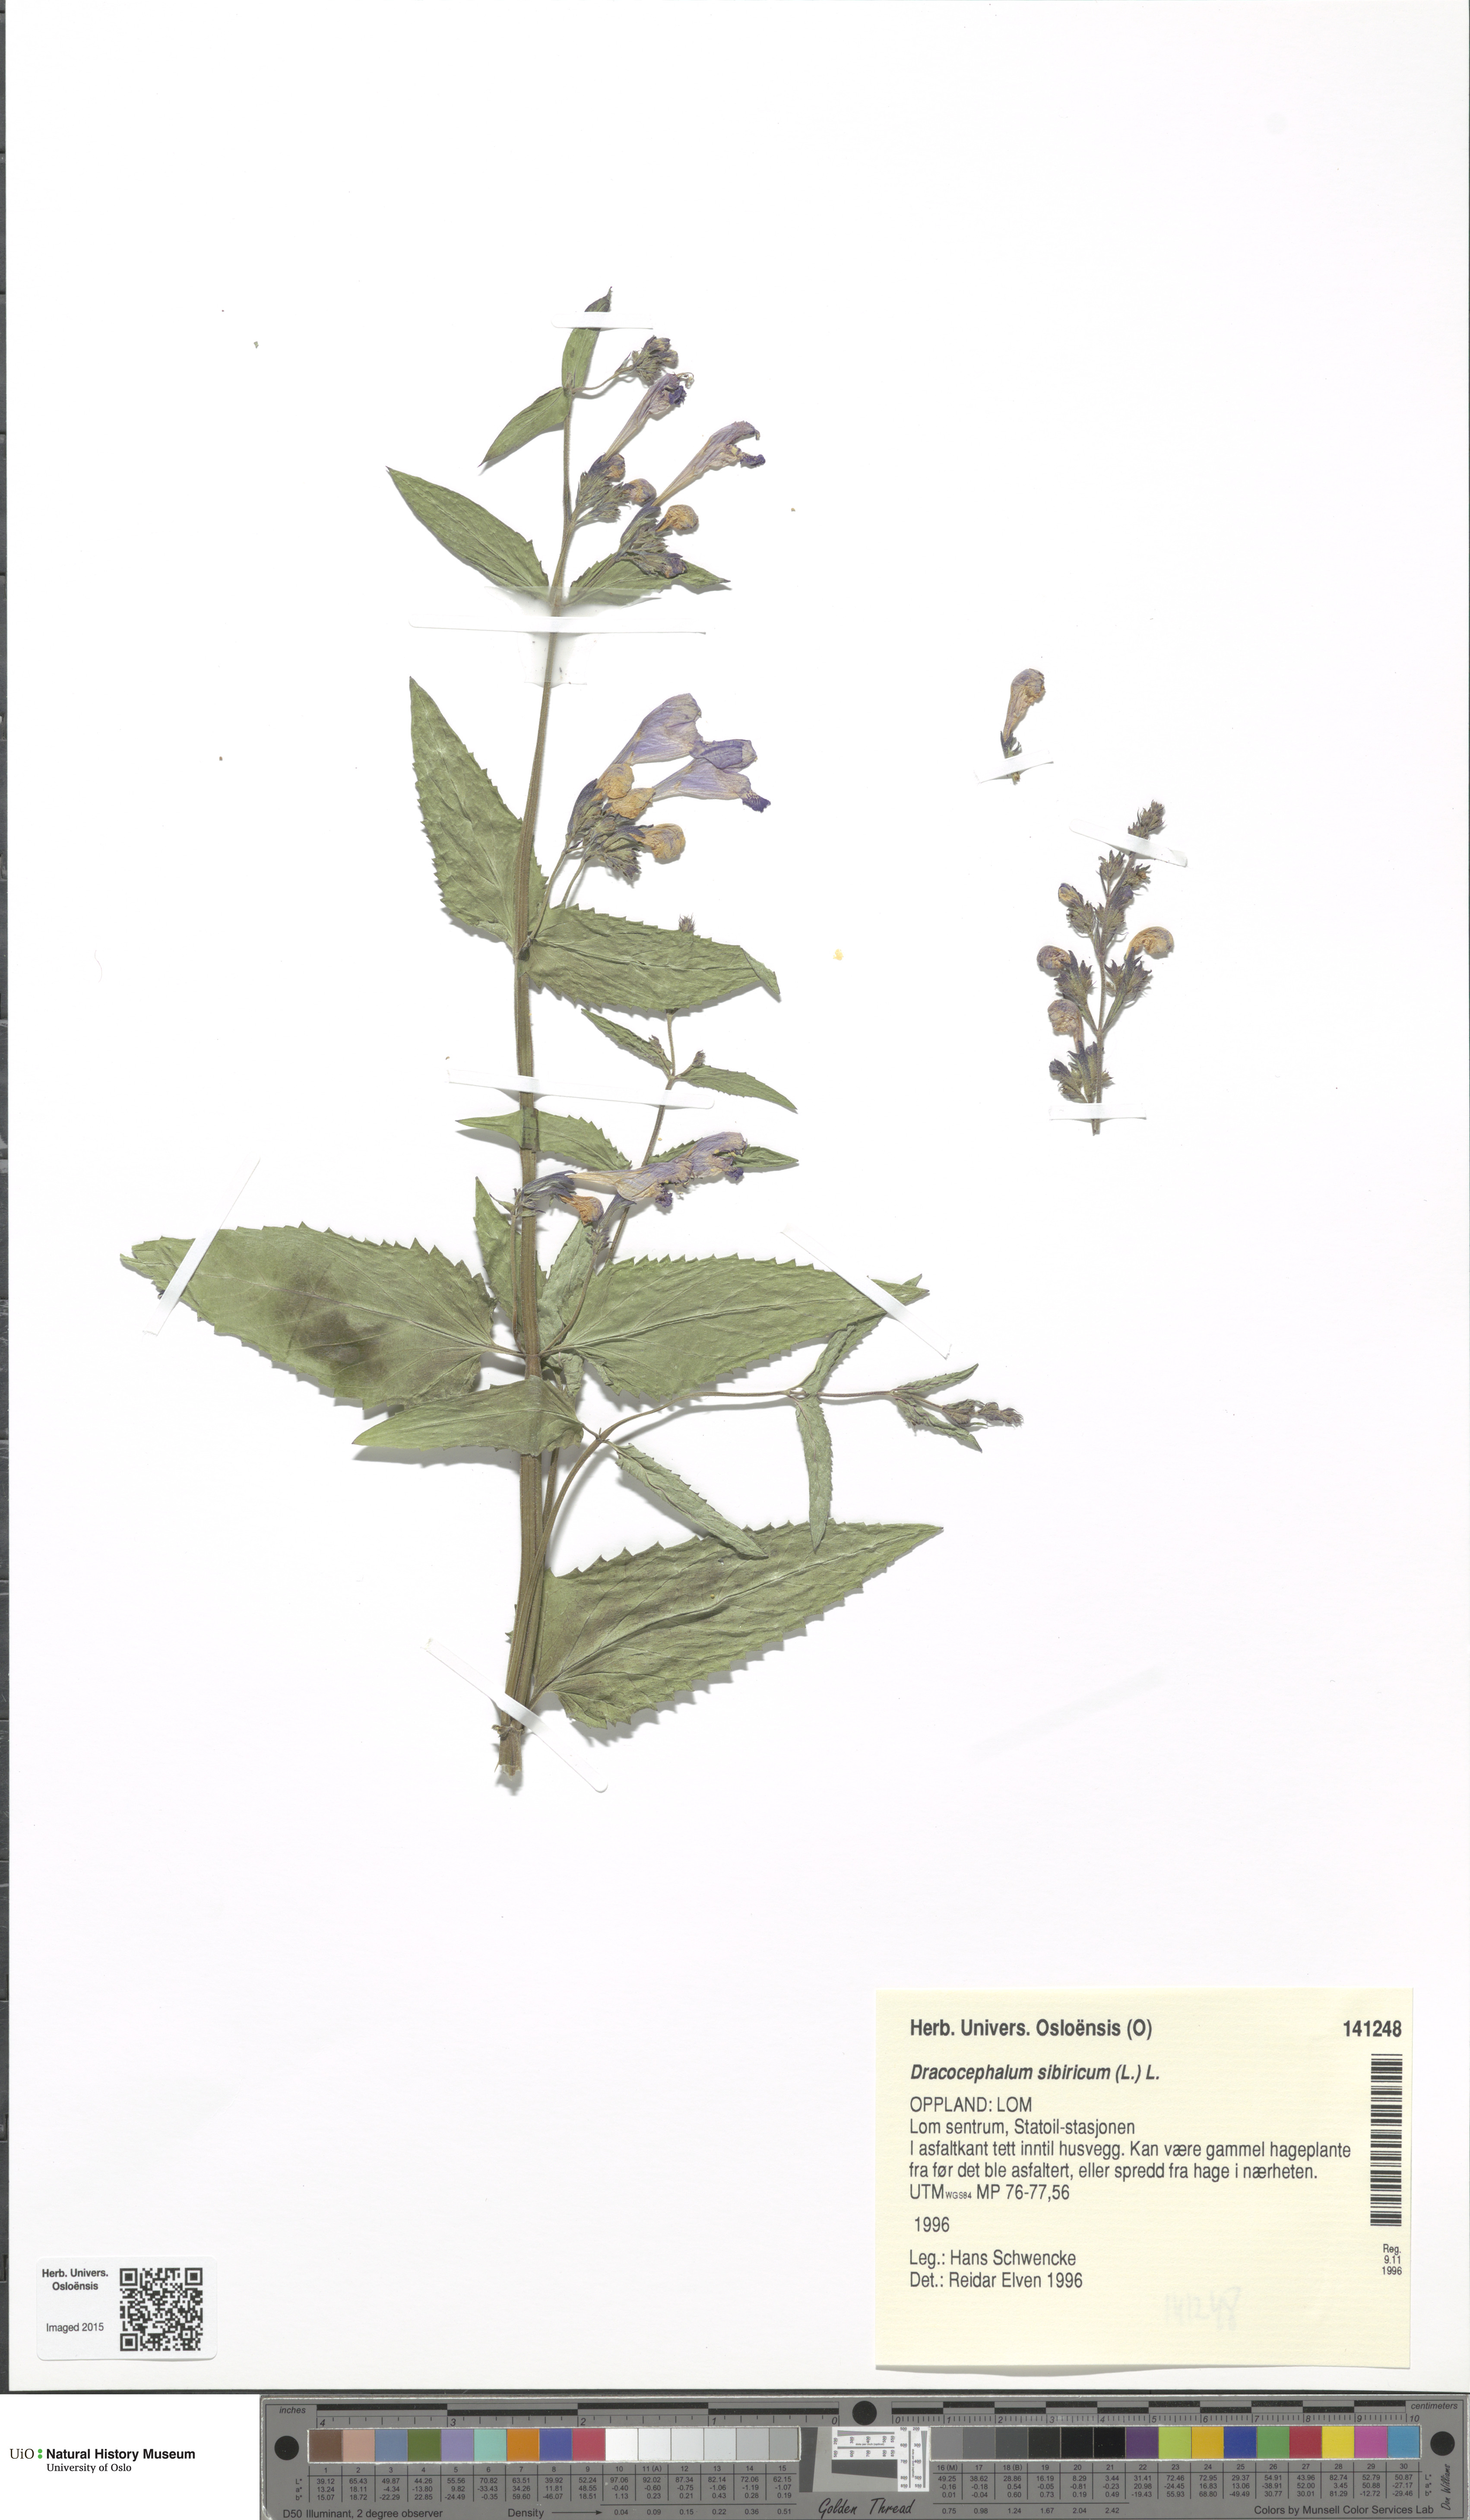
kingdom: Plantae
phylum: Tracheophyta
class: Magnoliopsida
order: Lamiales
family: Lamiaceae
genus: Nepeta
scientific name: Nepeta sibirica
